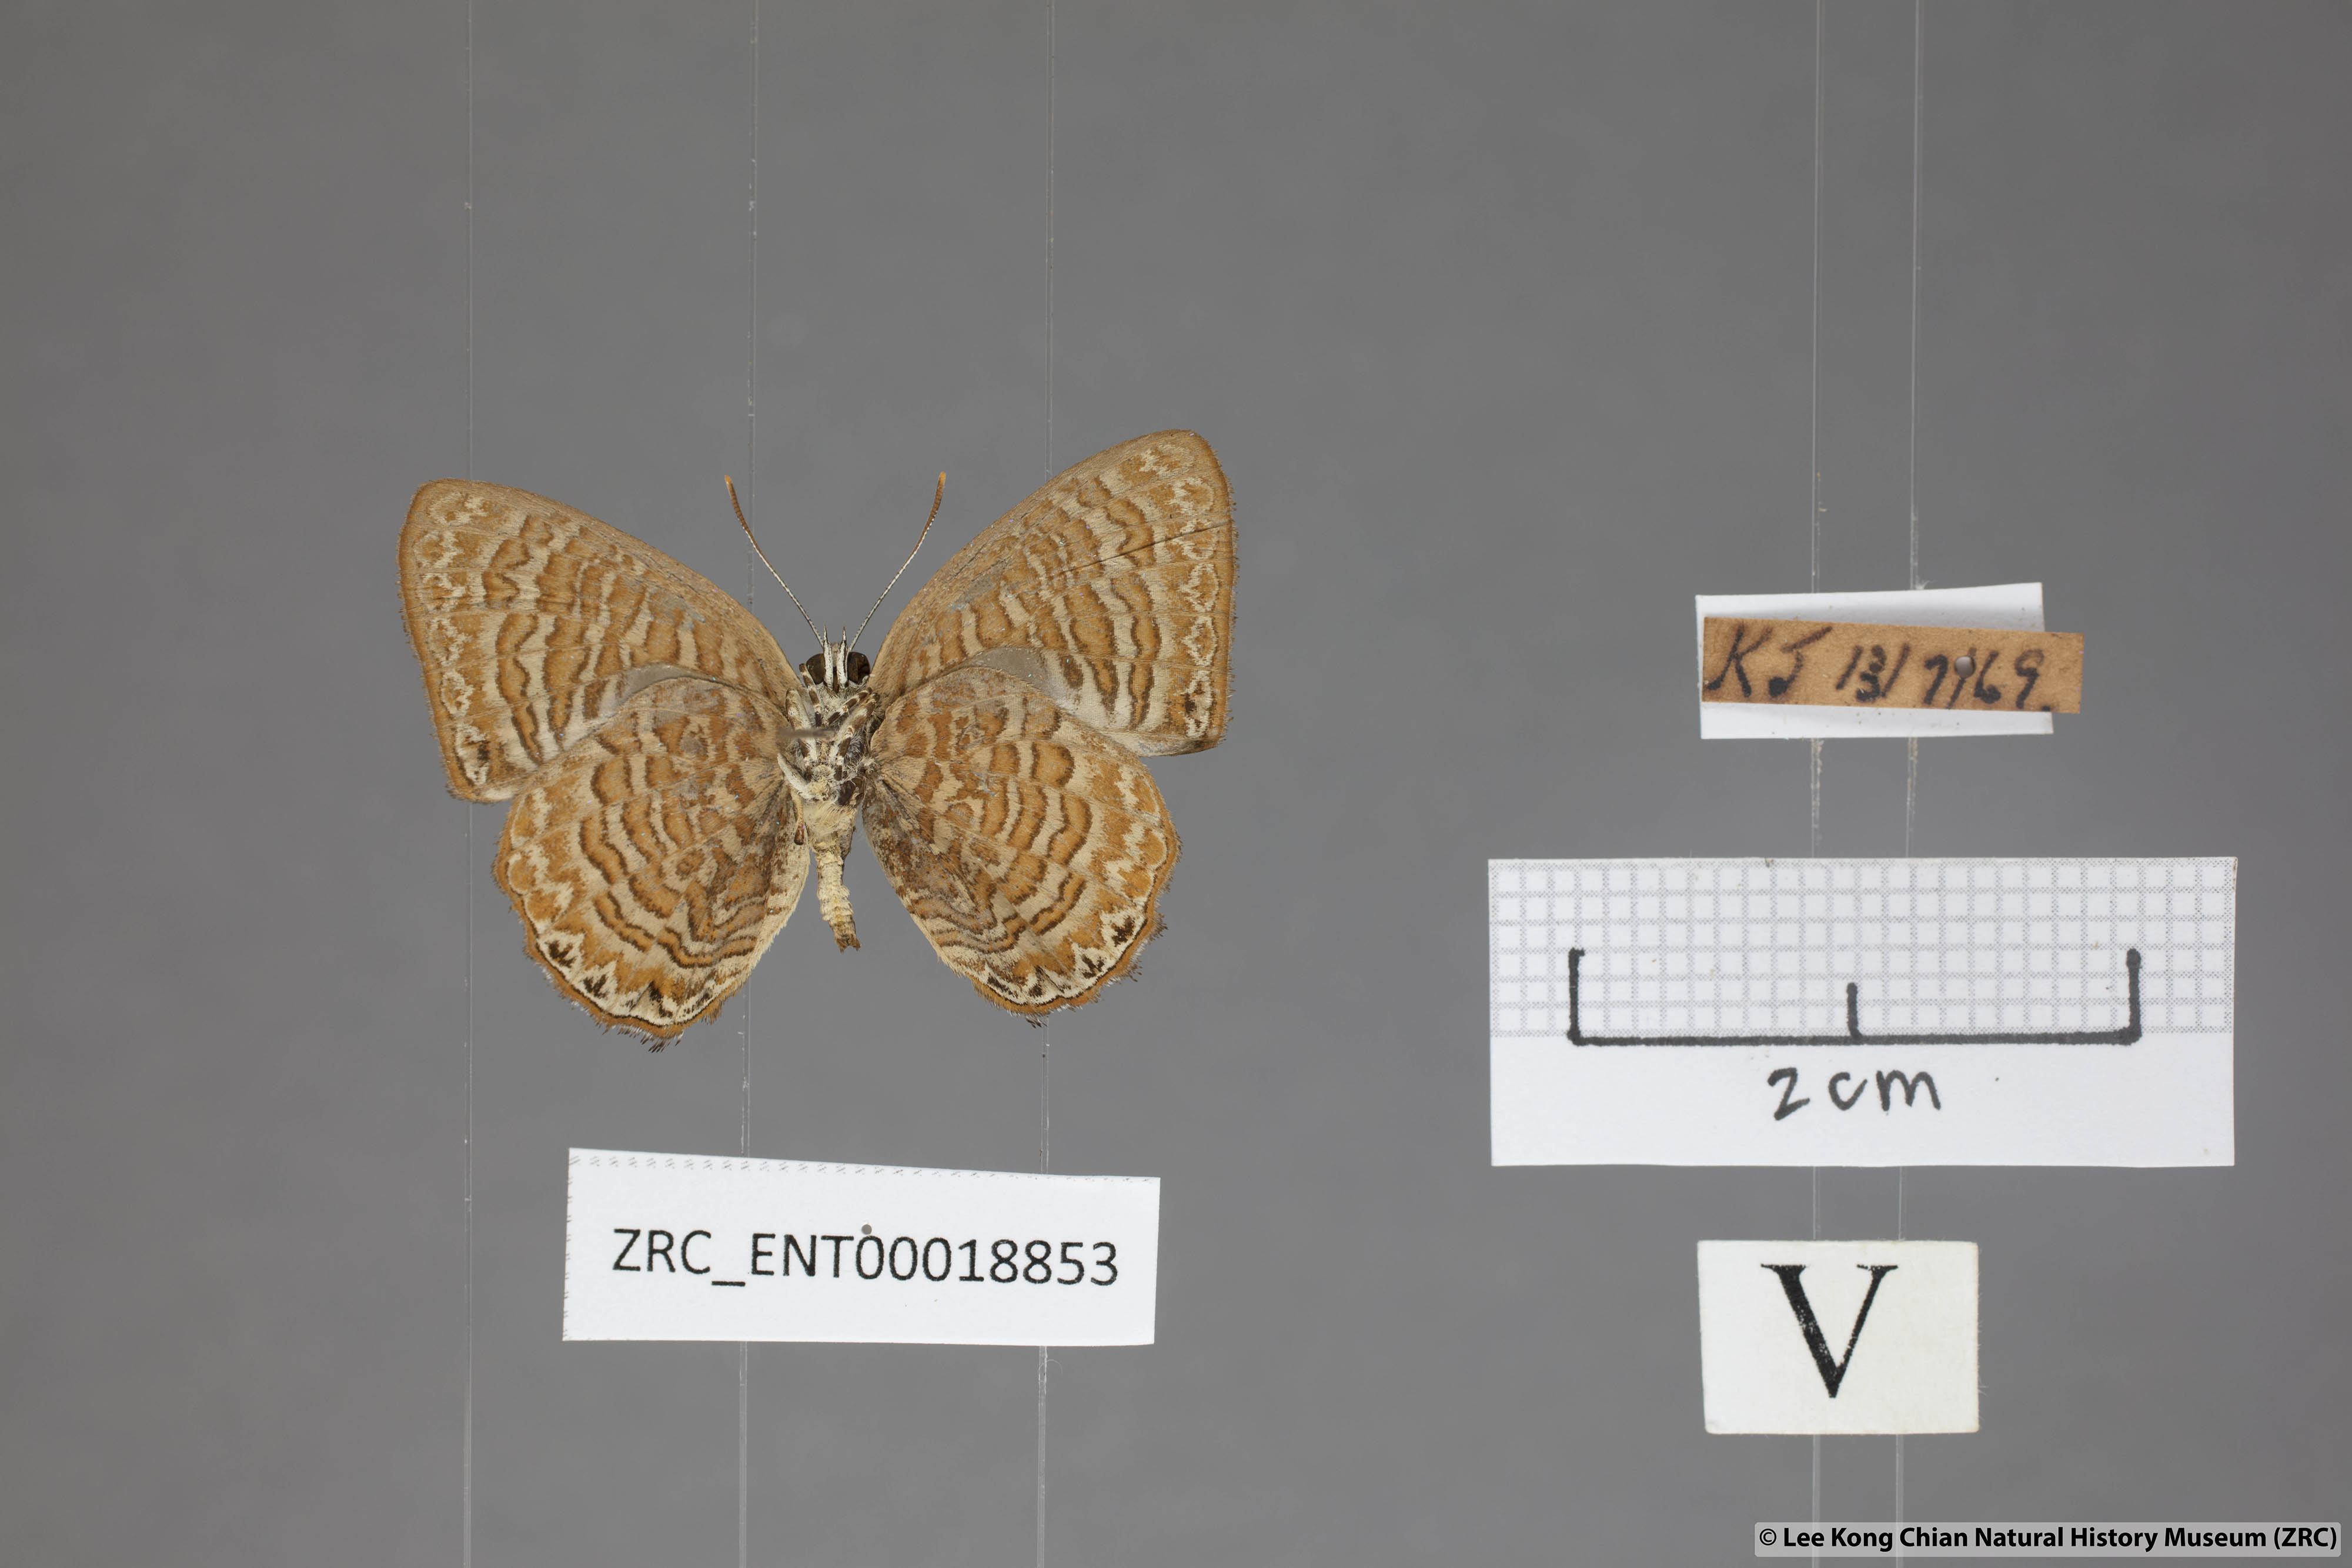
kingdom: Animalia
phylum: Arthropoda
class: Insecta
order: Lepidoptera
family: Lycaenidae
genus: Poritia
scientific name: Poritia sumatrae
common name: Sumatran gem
